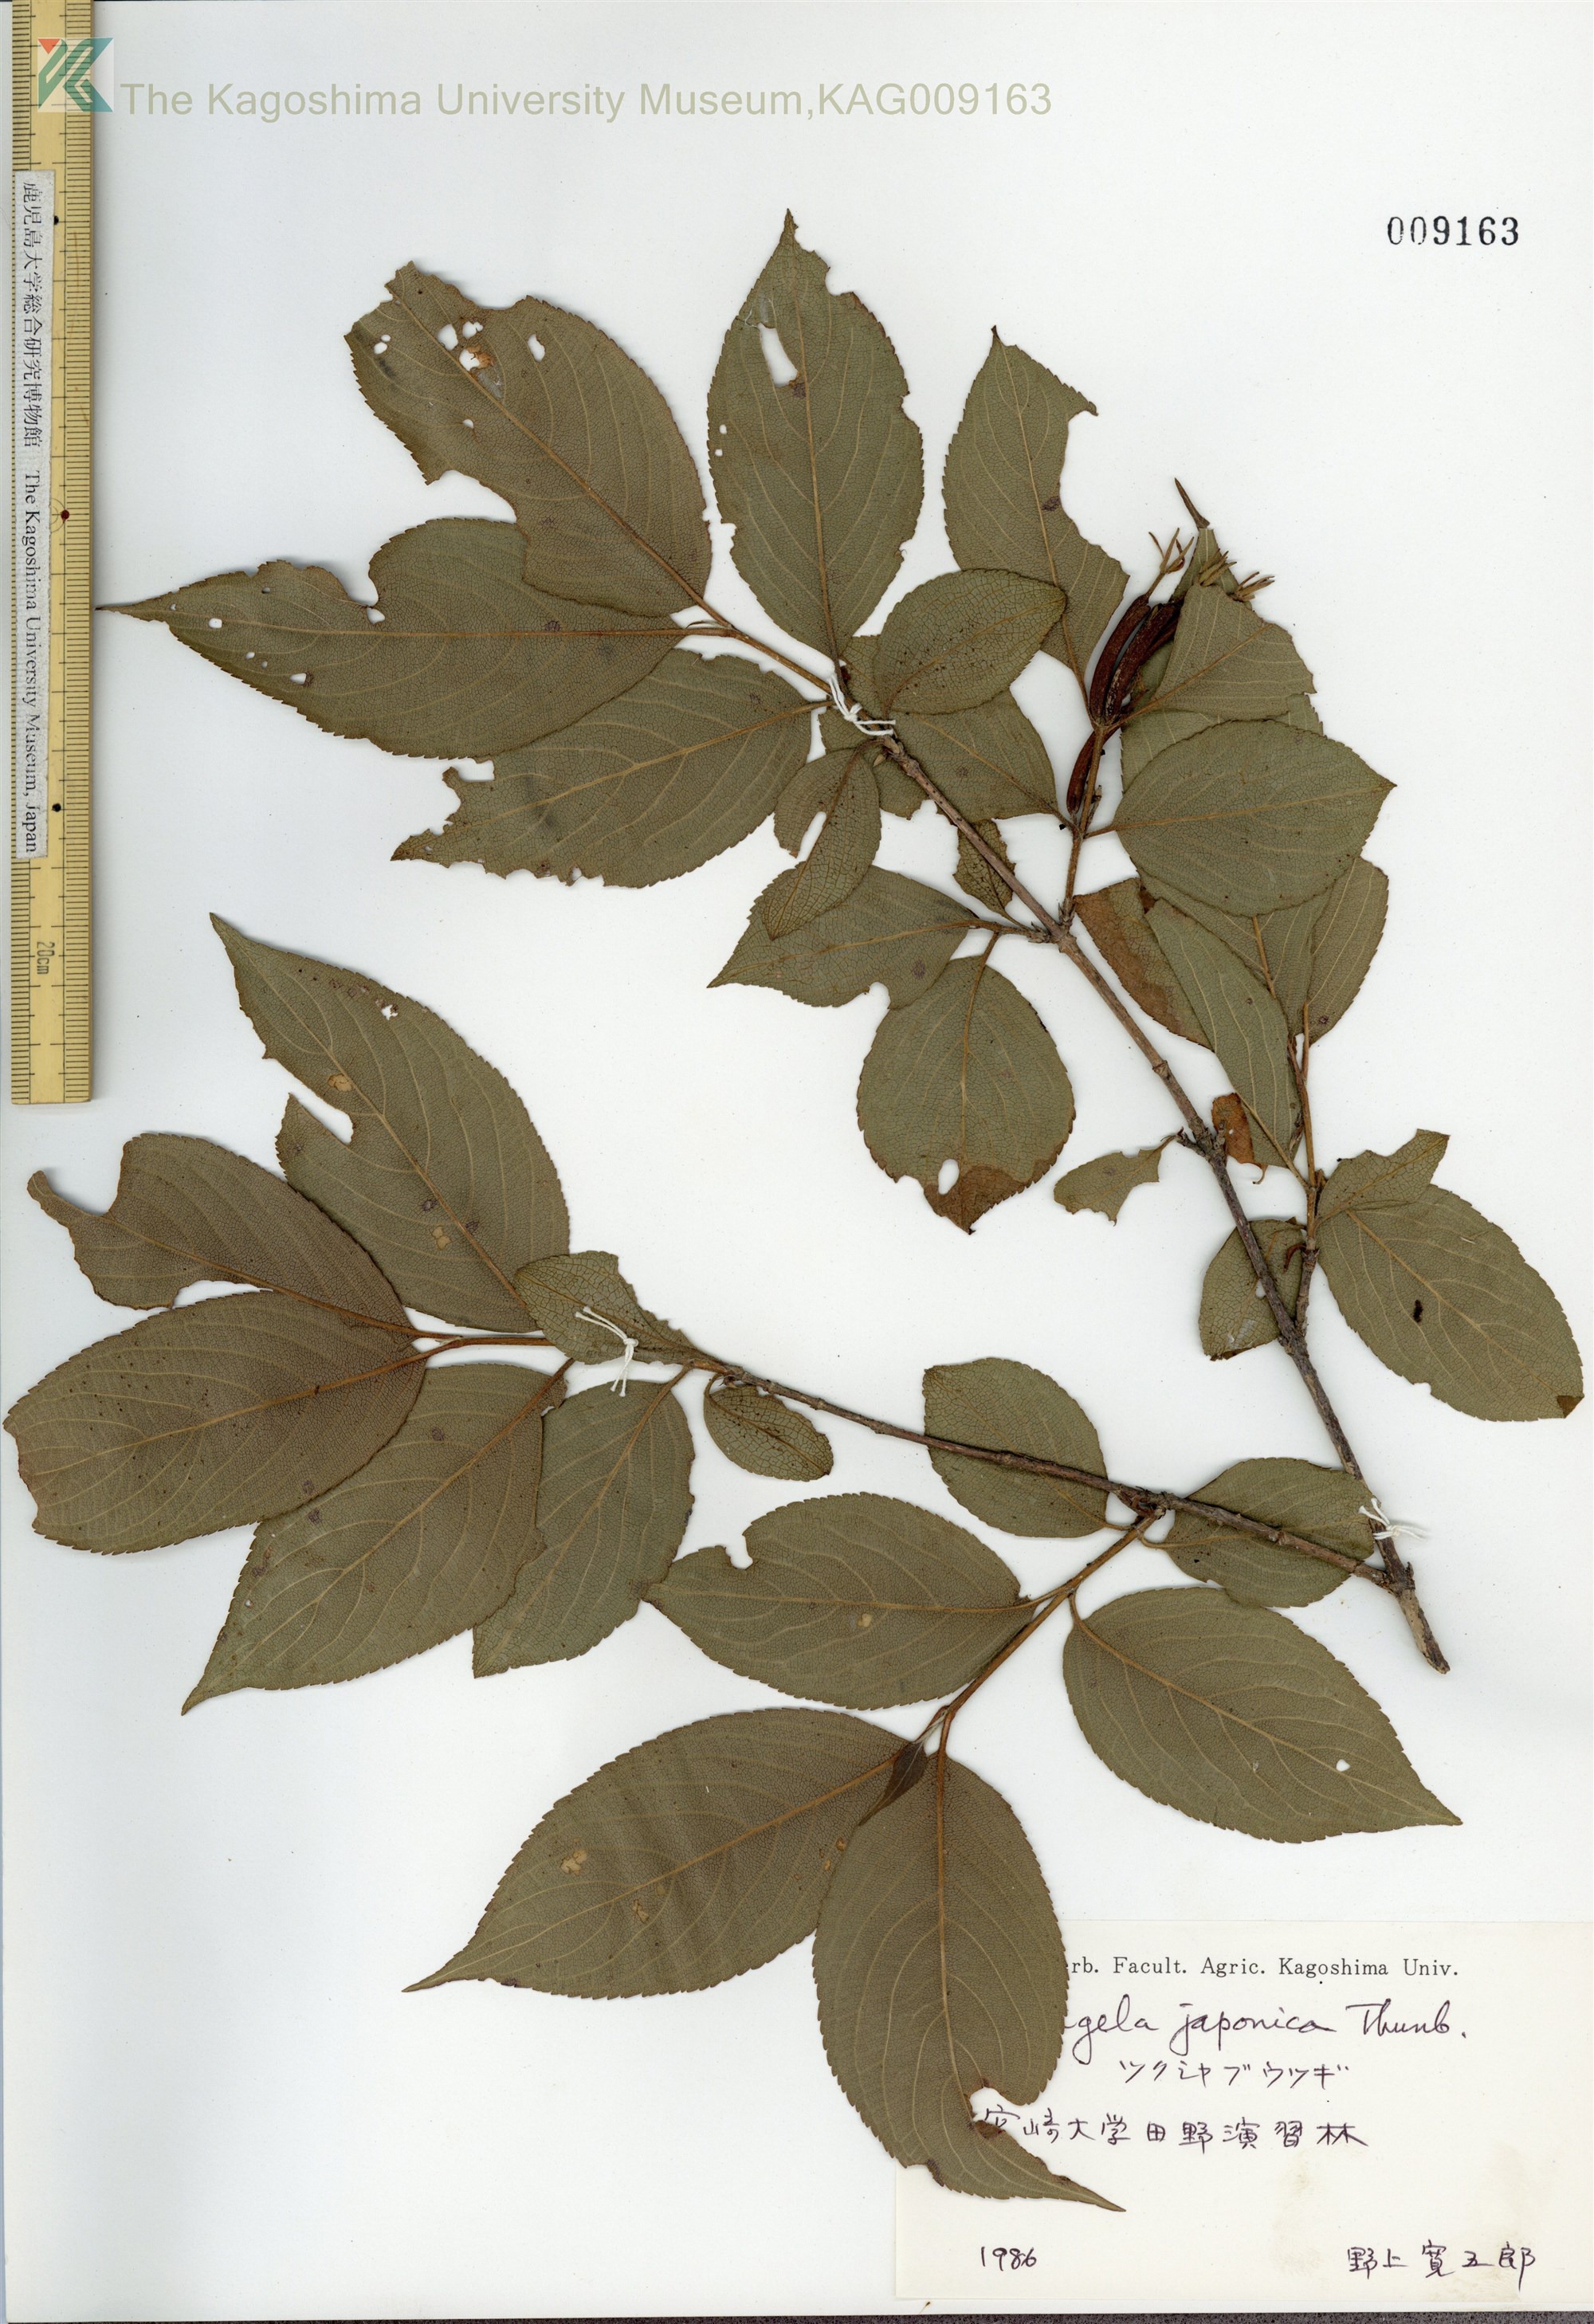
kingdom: Plantae
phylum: Tracheophyta
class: Magnoliopsida
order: Dipsacales
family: Caprifoliaceae
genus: Weigela
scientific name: Weigela japonica
